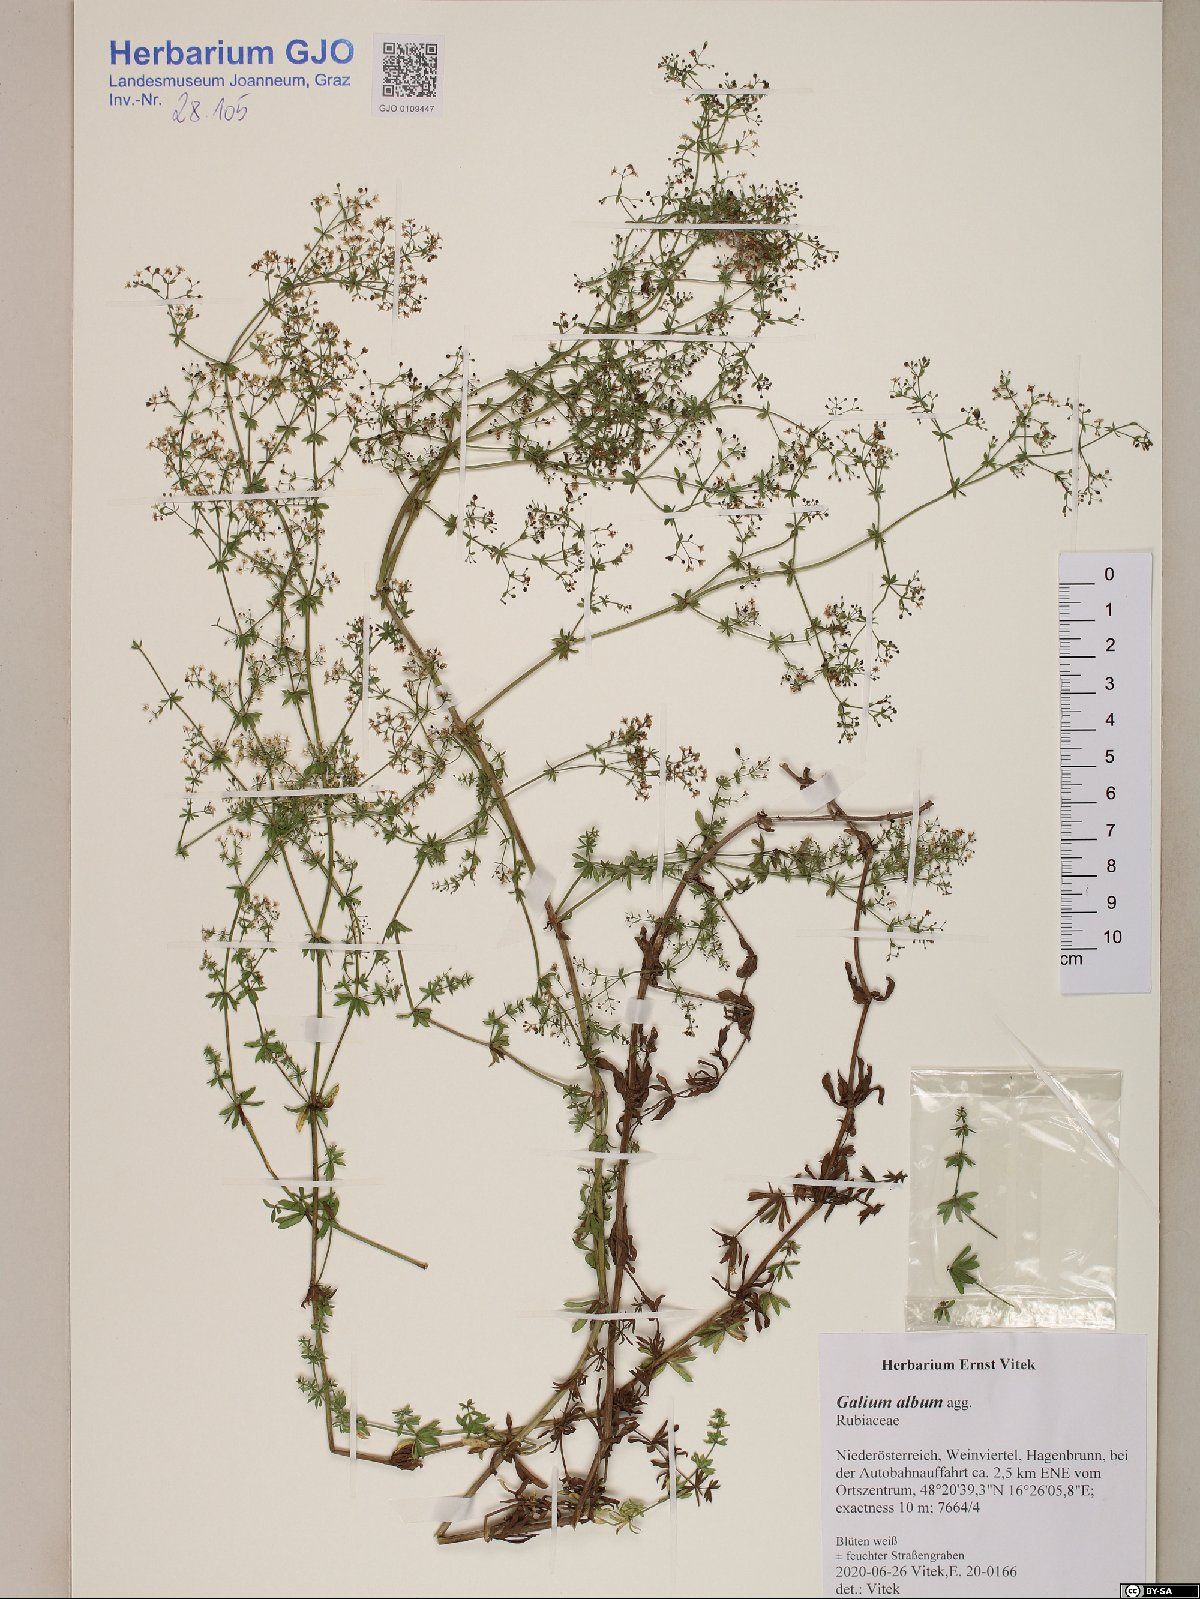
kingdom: Plantae
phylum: Tracheophyta
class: Magnoliopsida
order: Gentianales
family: Rubiaceae
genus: Galium
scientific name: Galium album
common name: White bedstraw
